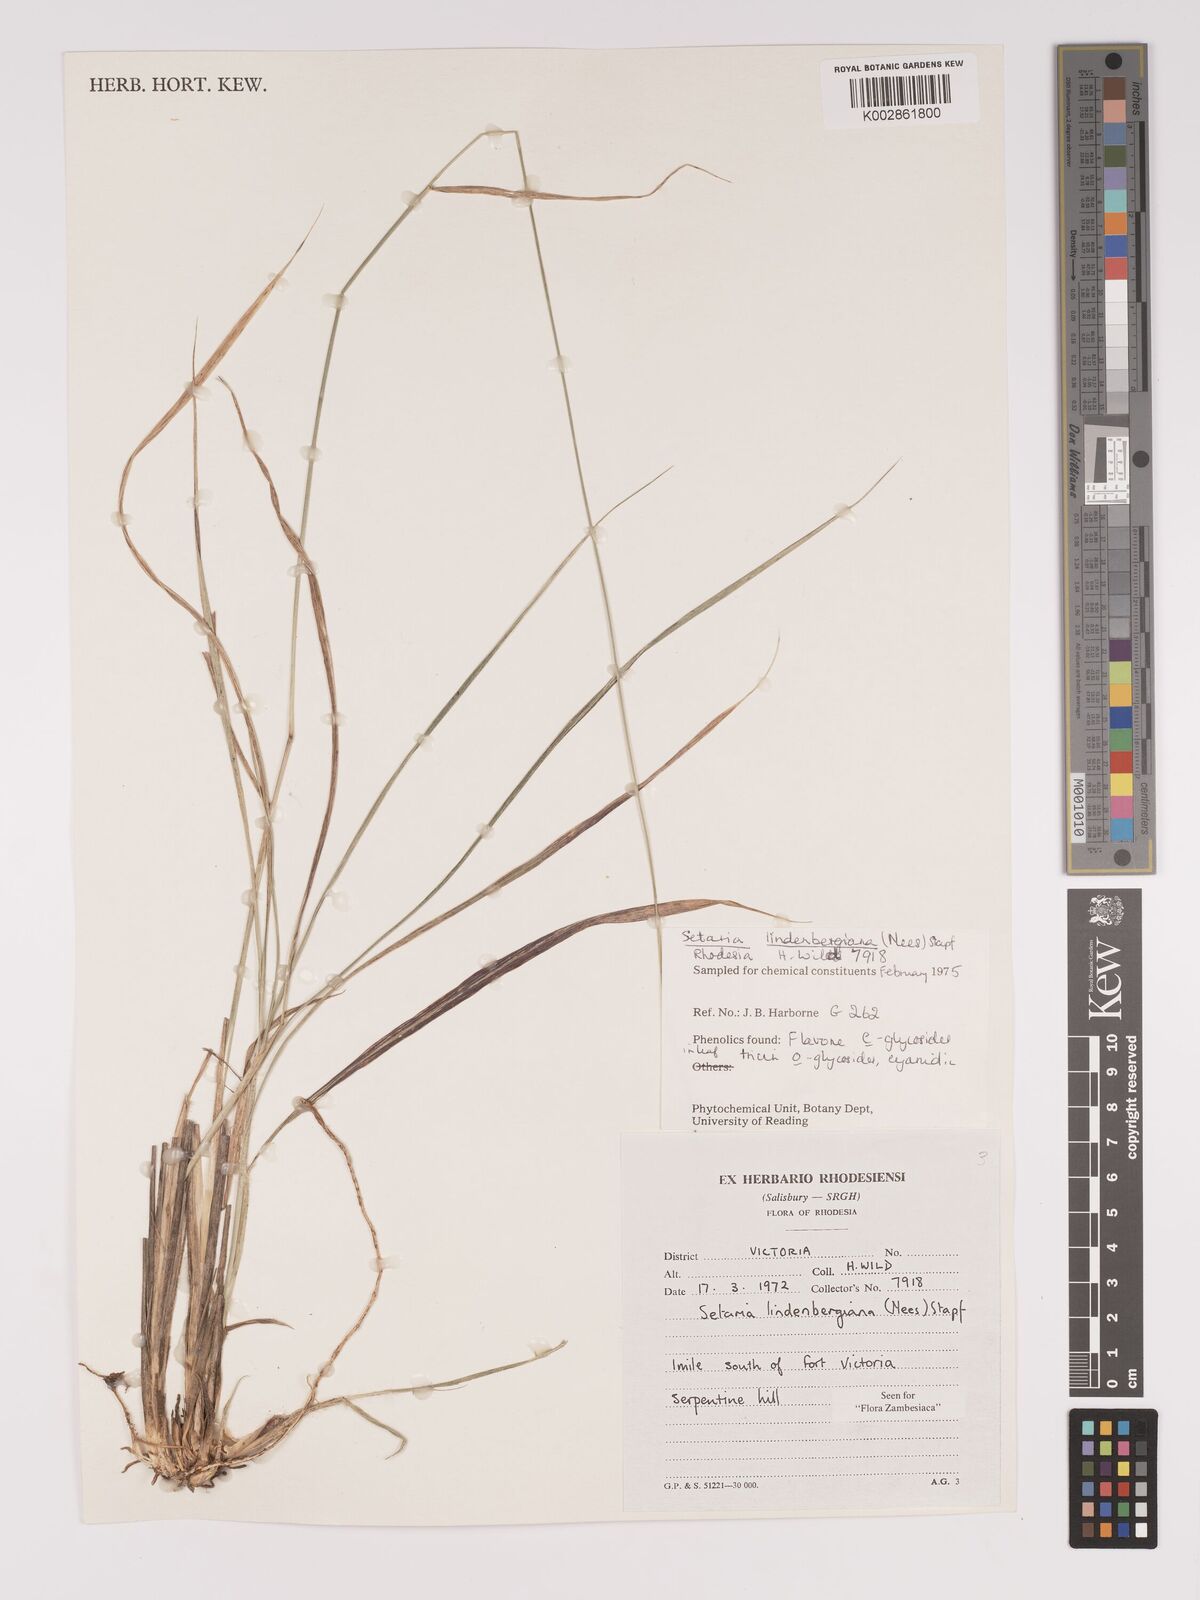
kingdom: Plantae
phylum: Tracheophyta
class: Liliopsida
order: Poales
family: Poaceae
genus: Setaria
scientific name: Setaria lindenbergiana
